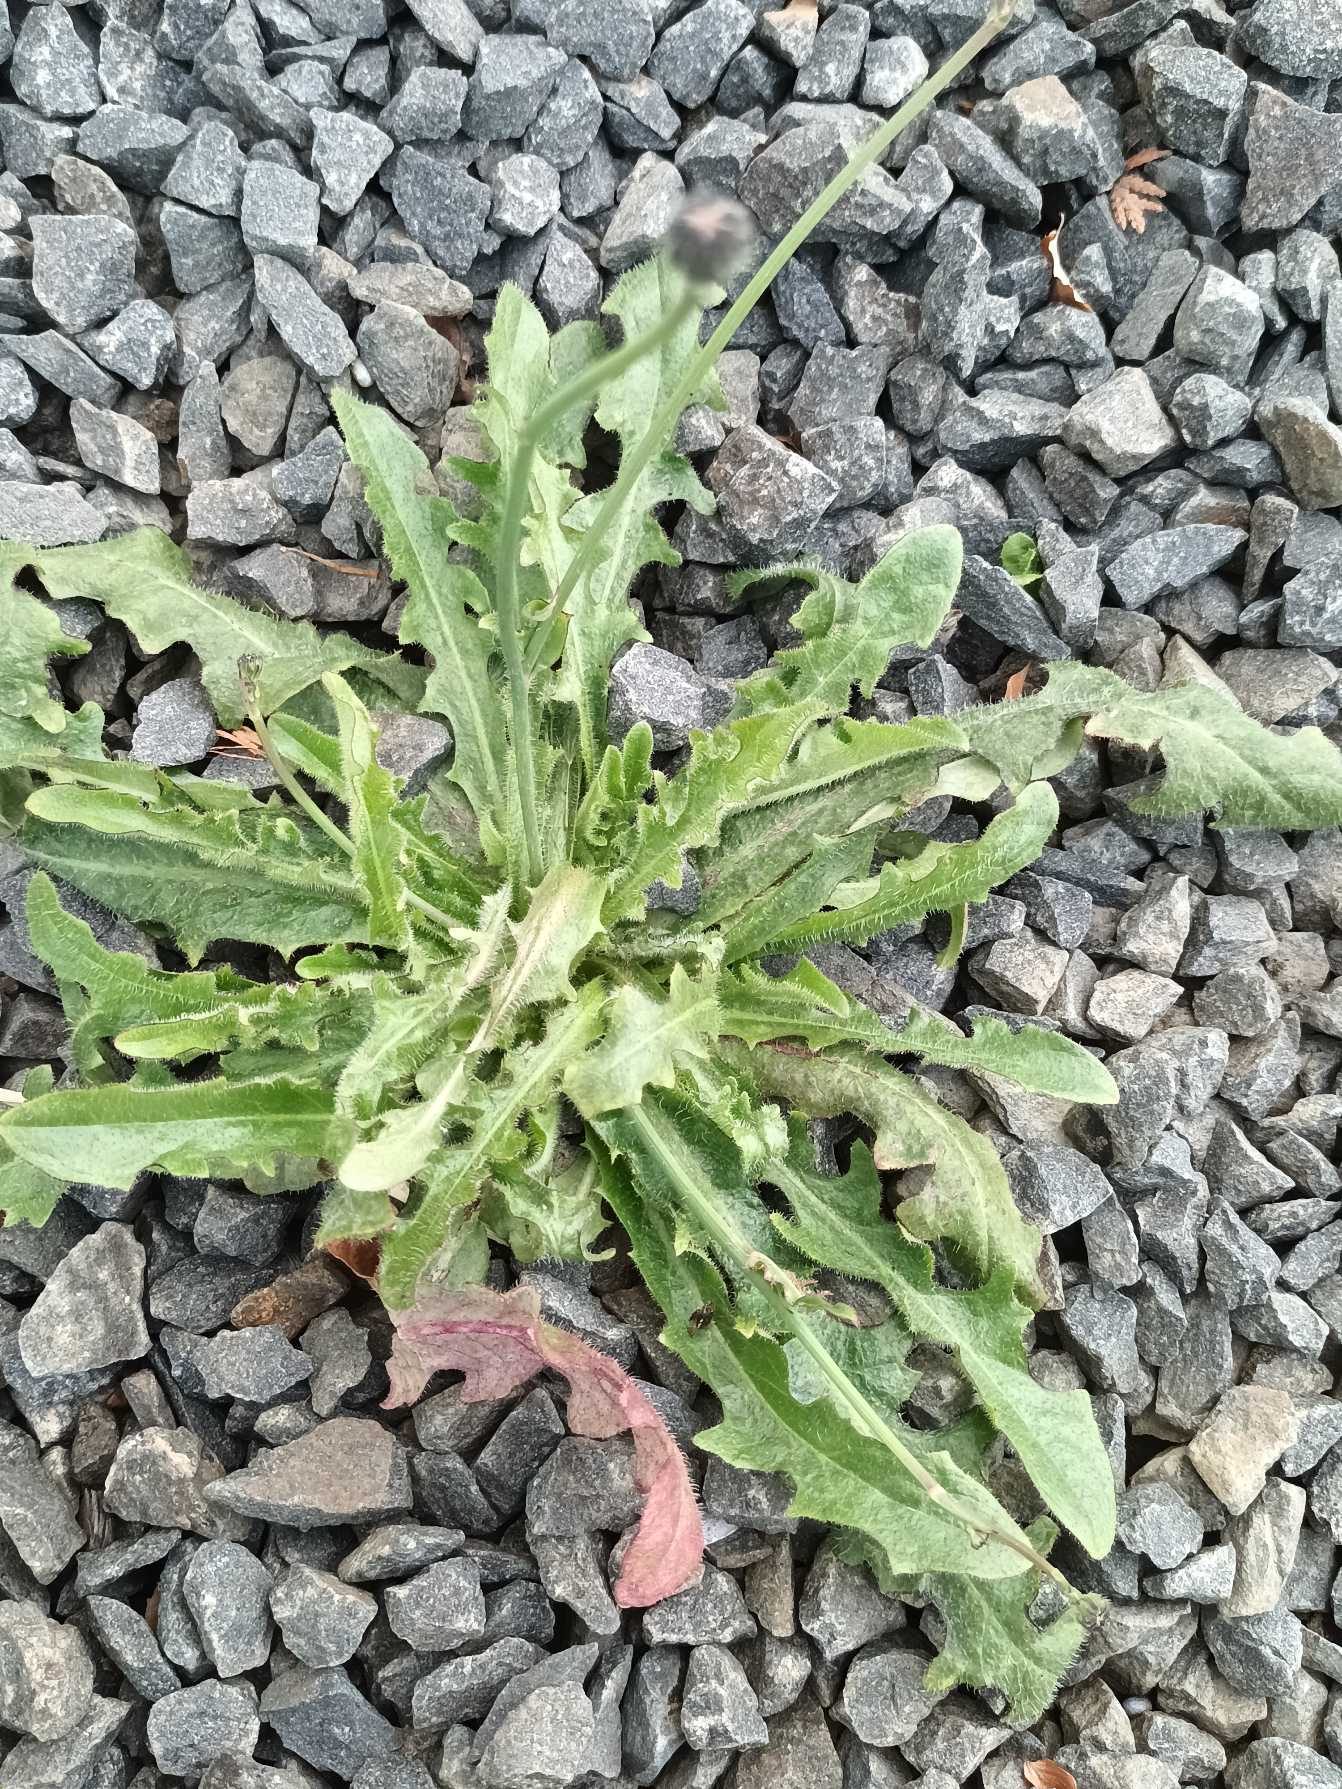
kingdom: Plantae
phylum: Tracheophyta
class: Magnoliopsida
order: Asterales
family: Asteraceae
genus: Hypochaeris
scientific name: Hypochaeris radicata
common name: Almindelig kongepen
